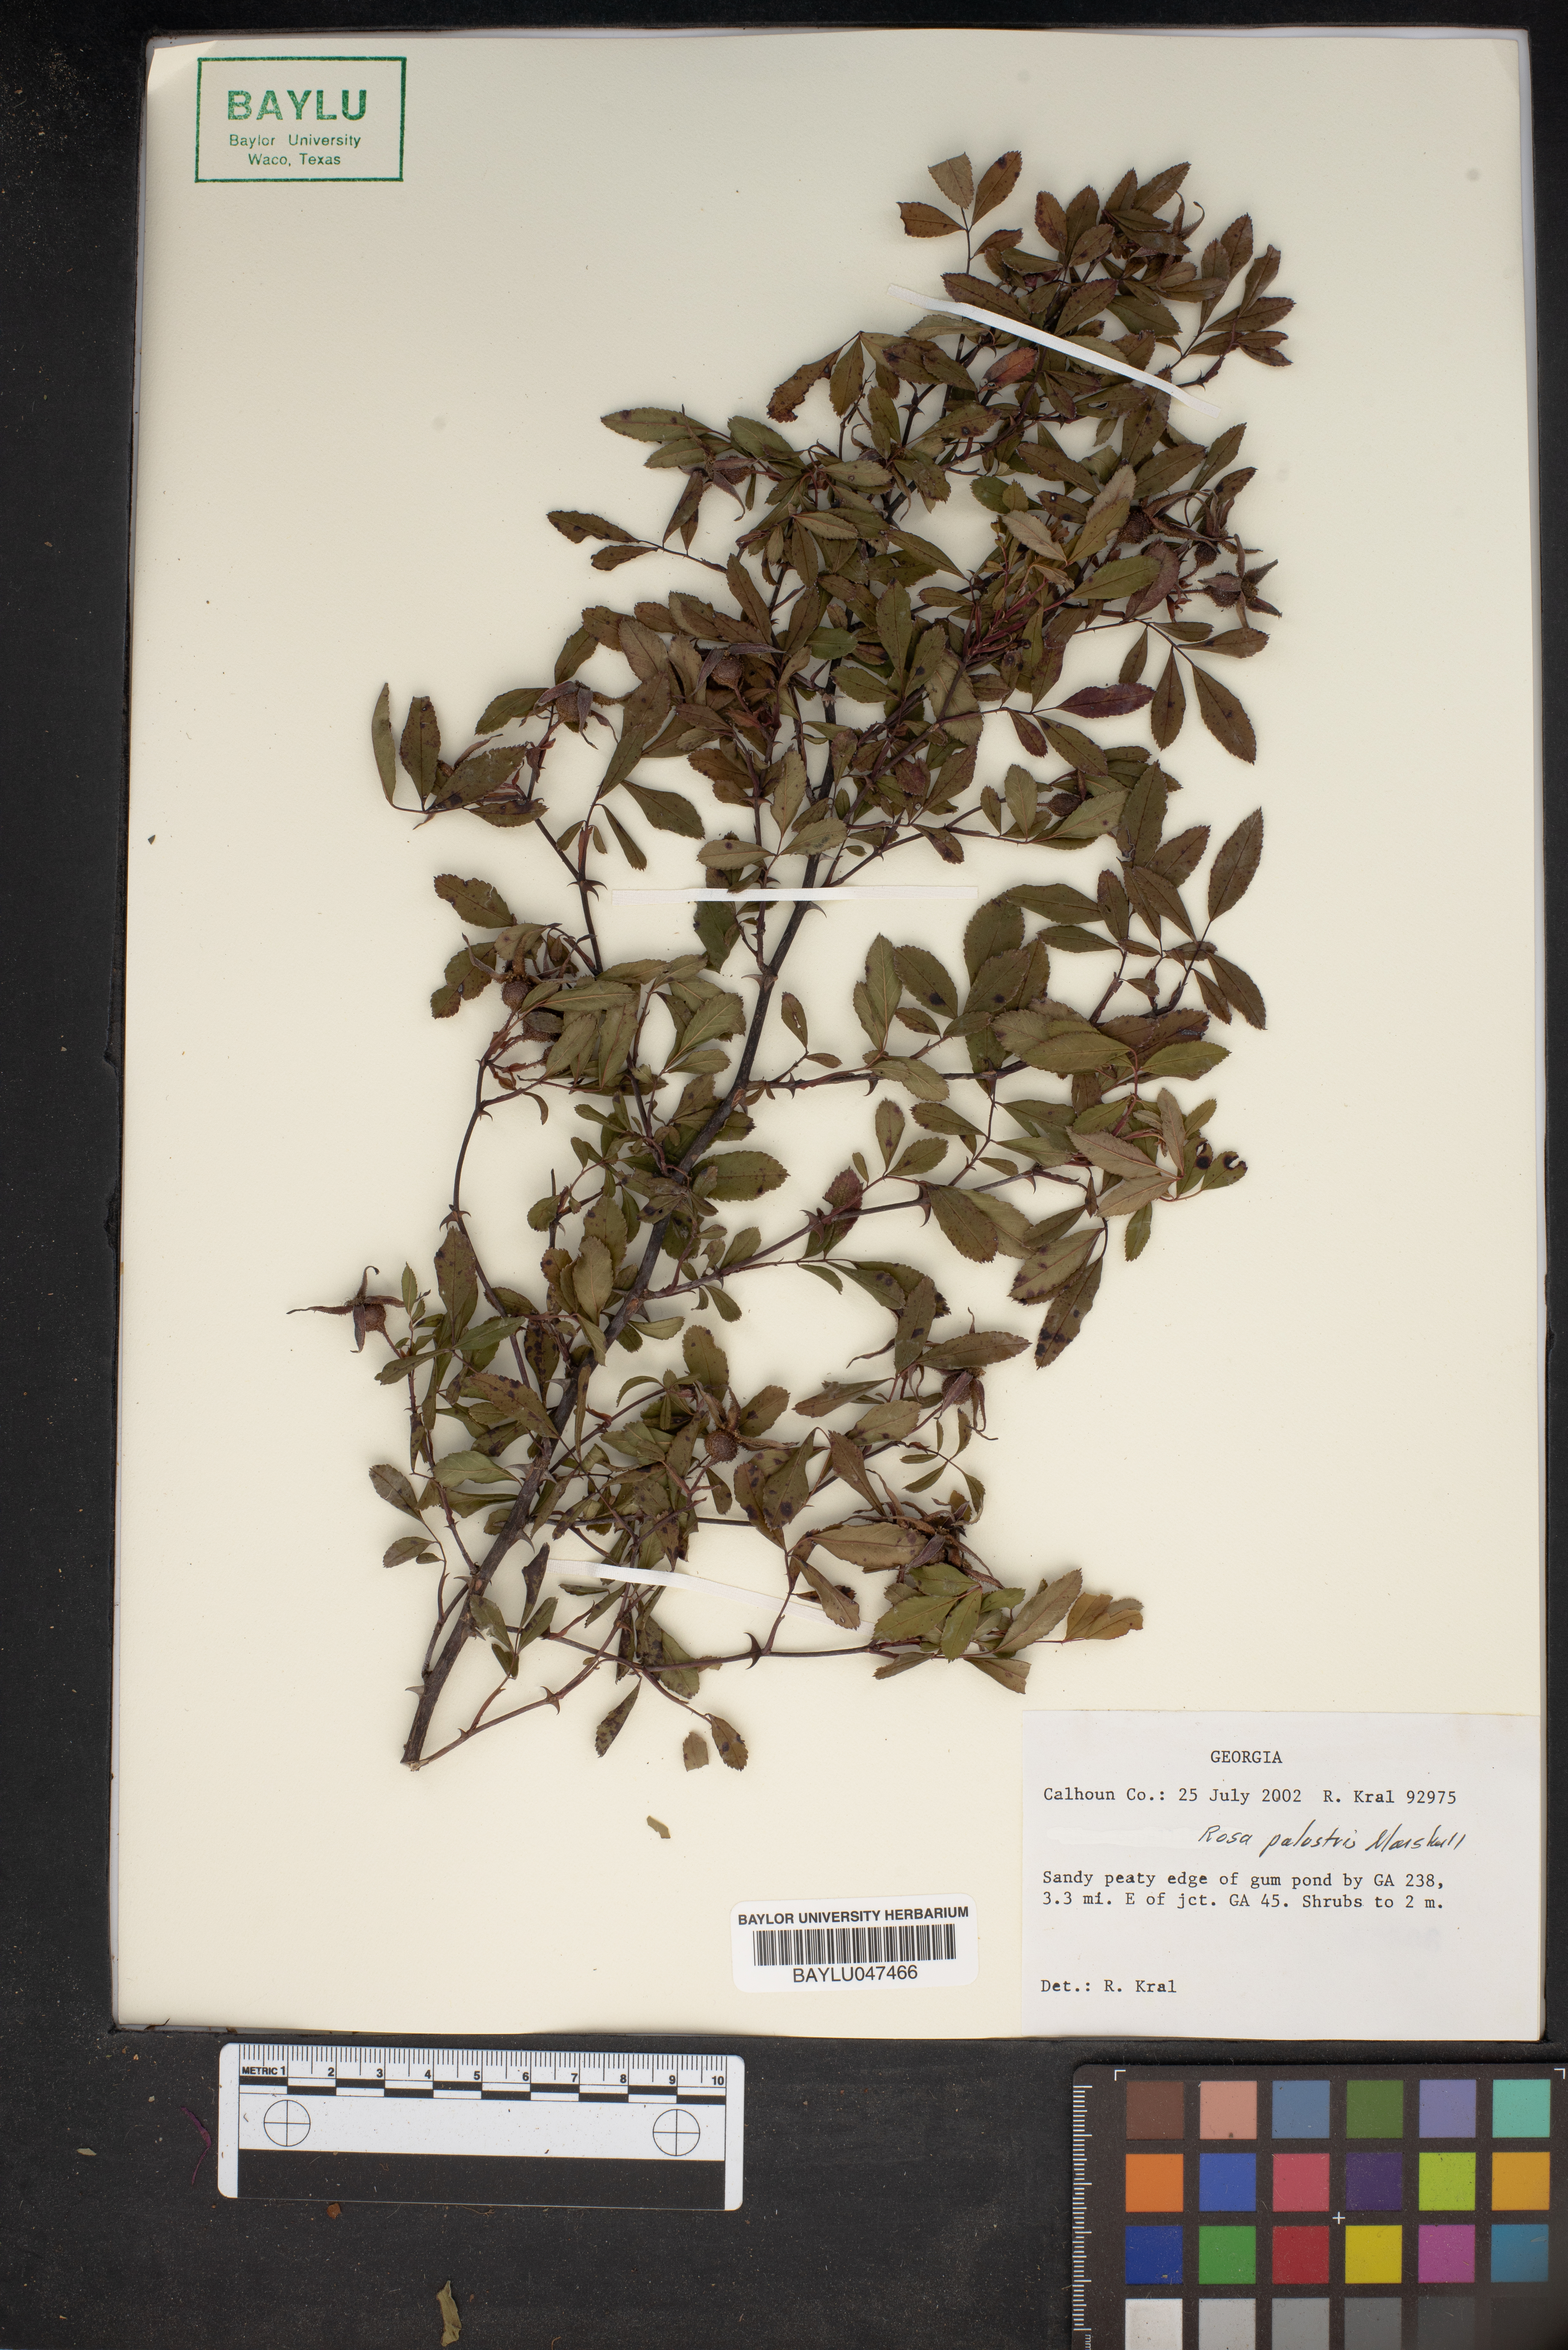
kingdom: Plantae
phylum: Tracheophyta
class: Magnoliopsida
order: Rosales
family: Rosaceae
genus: Rosa
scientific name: Rosa palustris
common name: Swamp rose
